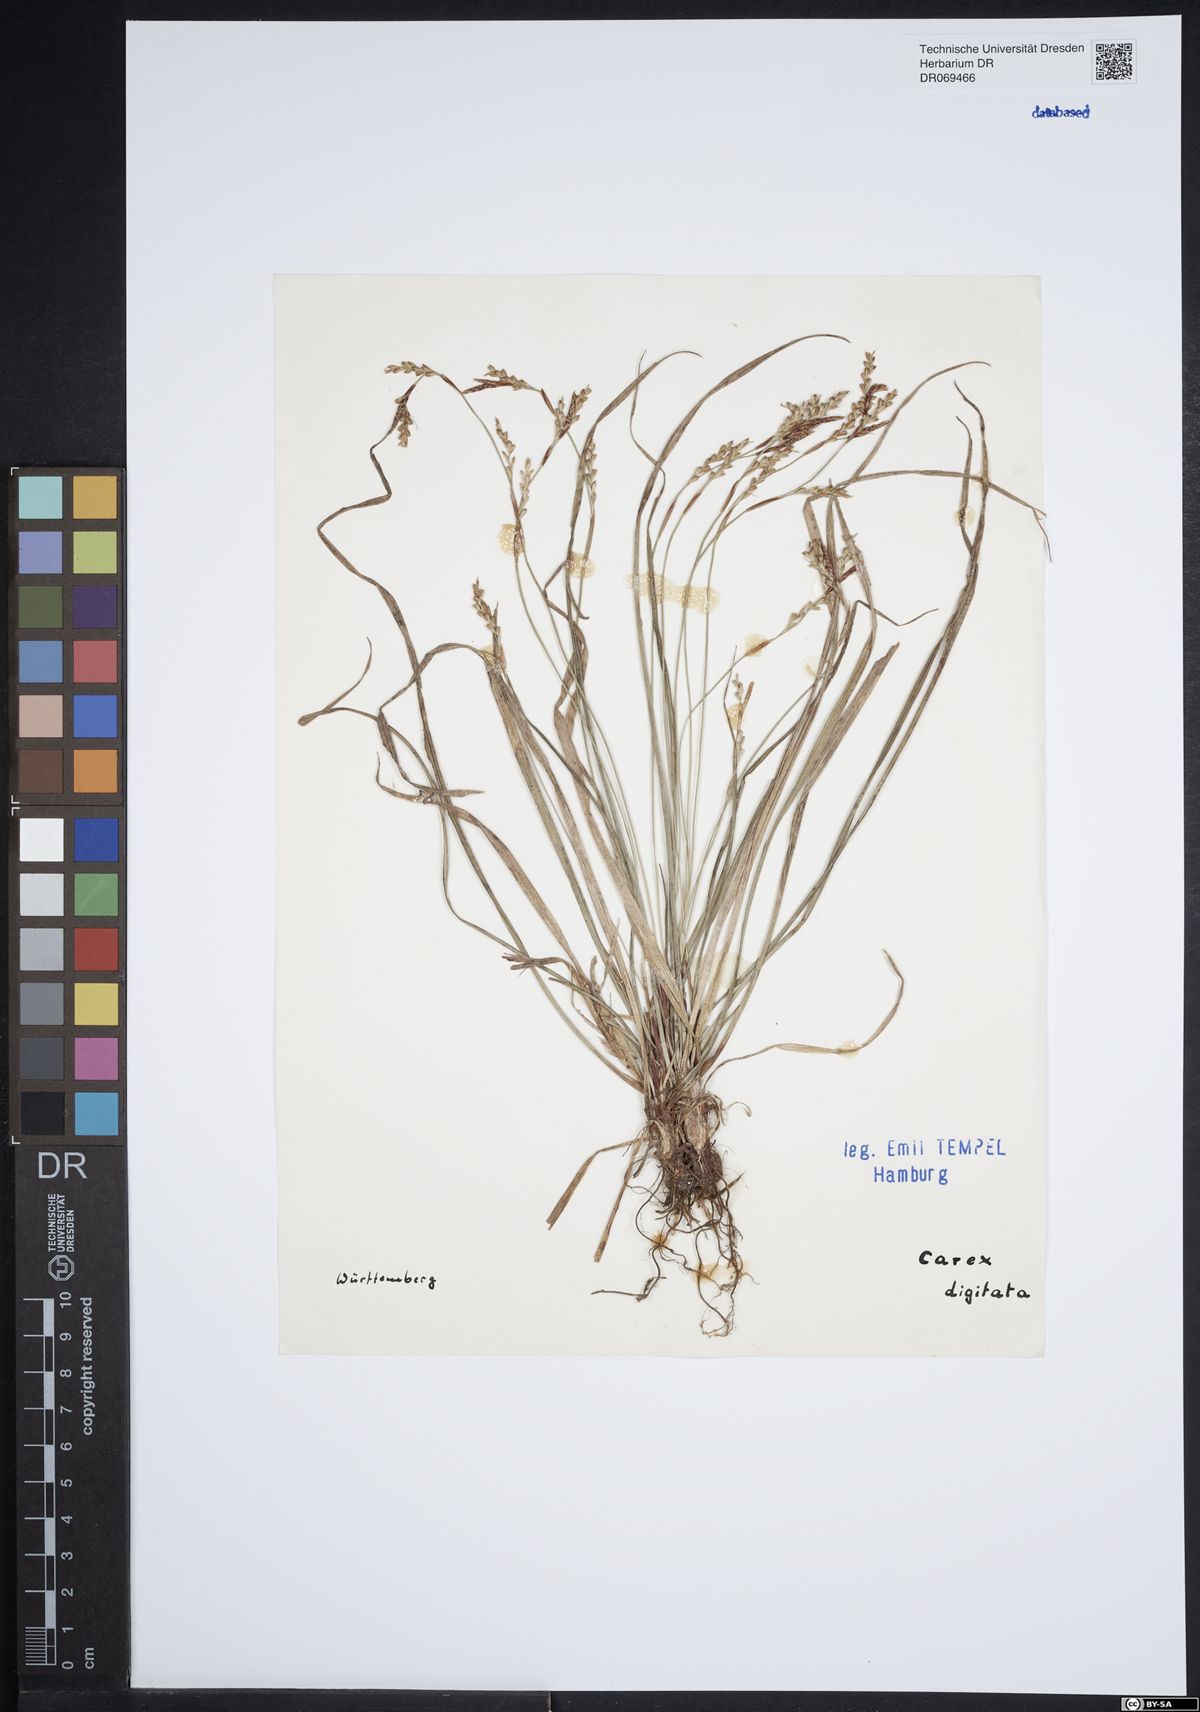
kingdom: Plantae
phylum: Tracheophyta
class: Liliopsida
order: Poales
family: Cyperaceae
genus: Carex
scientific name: Carex digitata
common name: Fingered sedge
